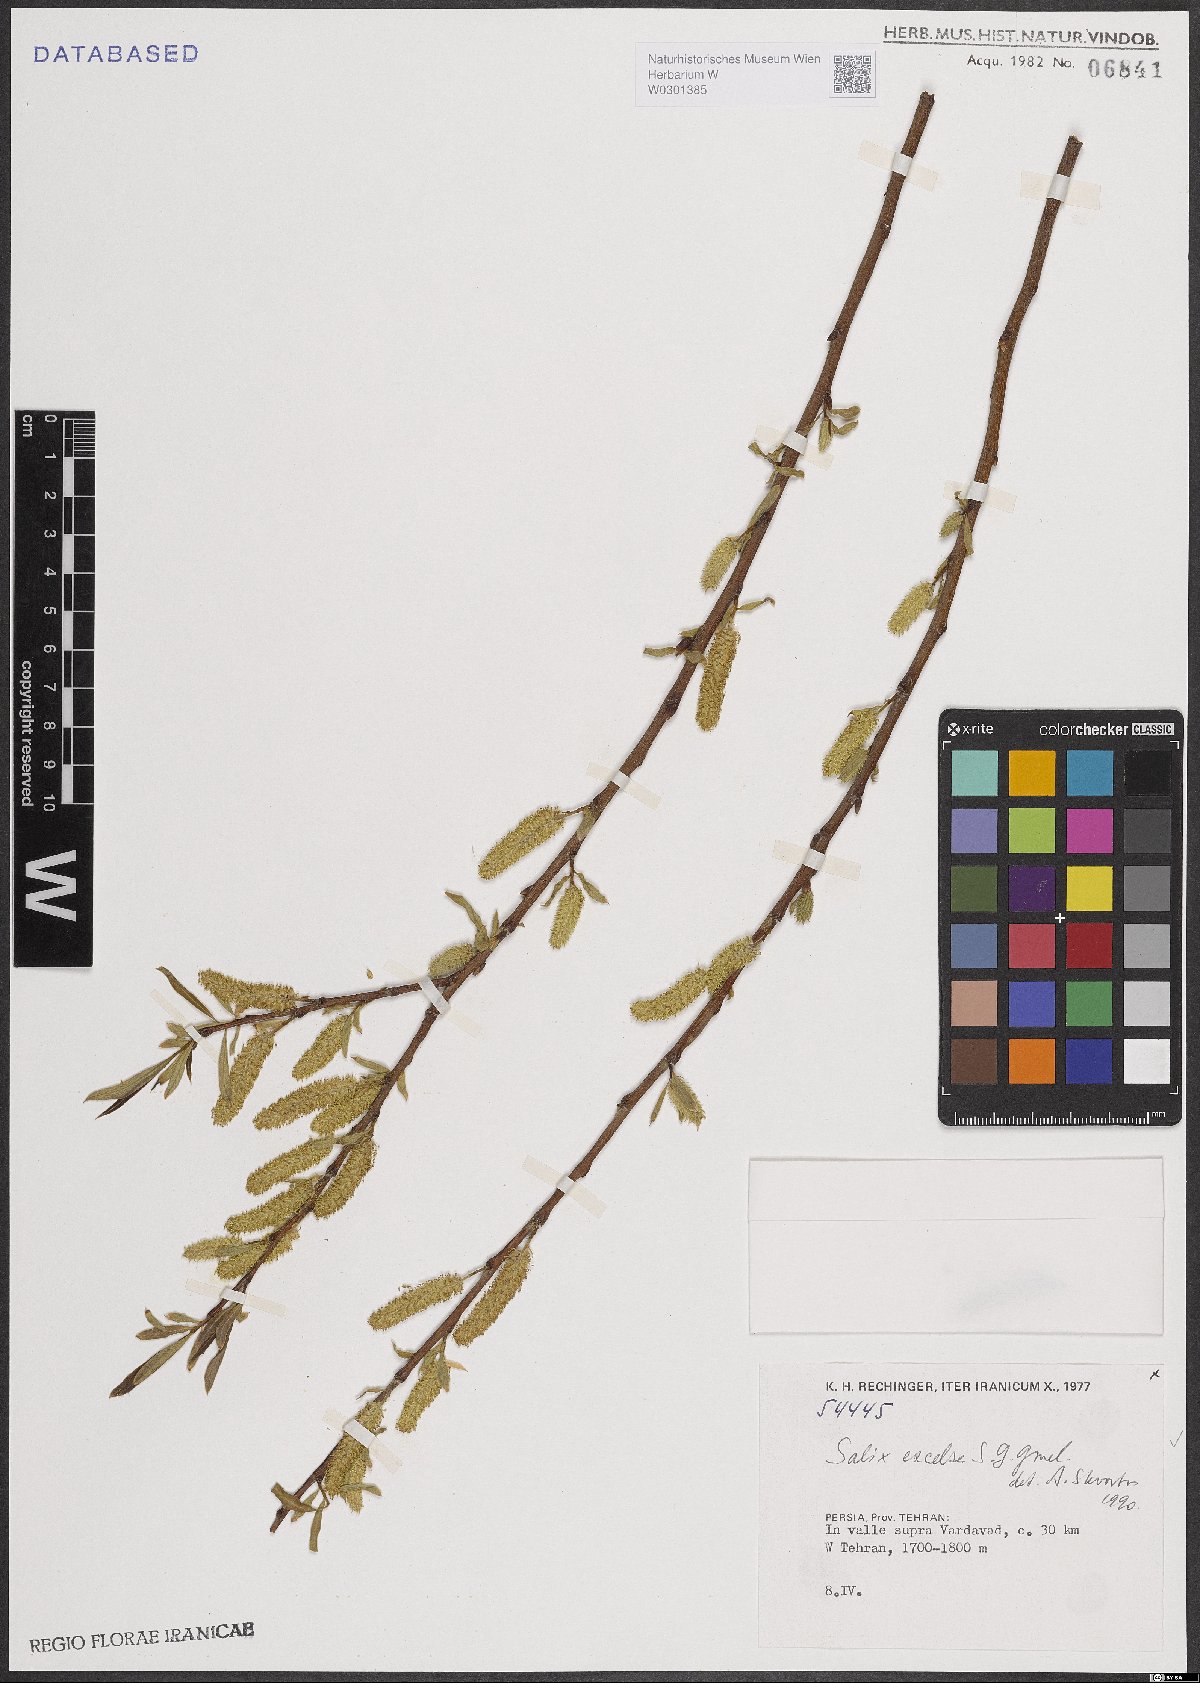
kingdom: Plantae
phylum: Tracheophyta
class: Magnoliopsida
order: Malpighiales
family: Salicaceae
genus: Salix
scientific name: Salix excelsa
